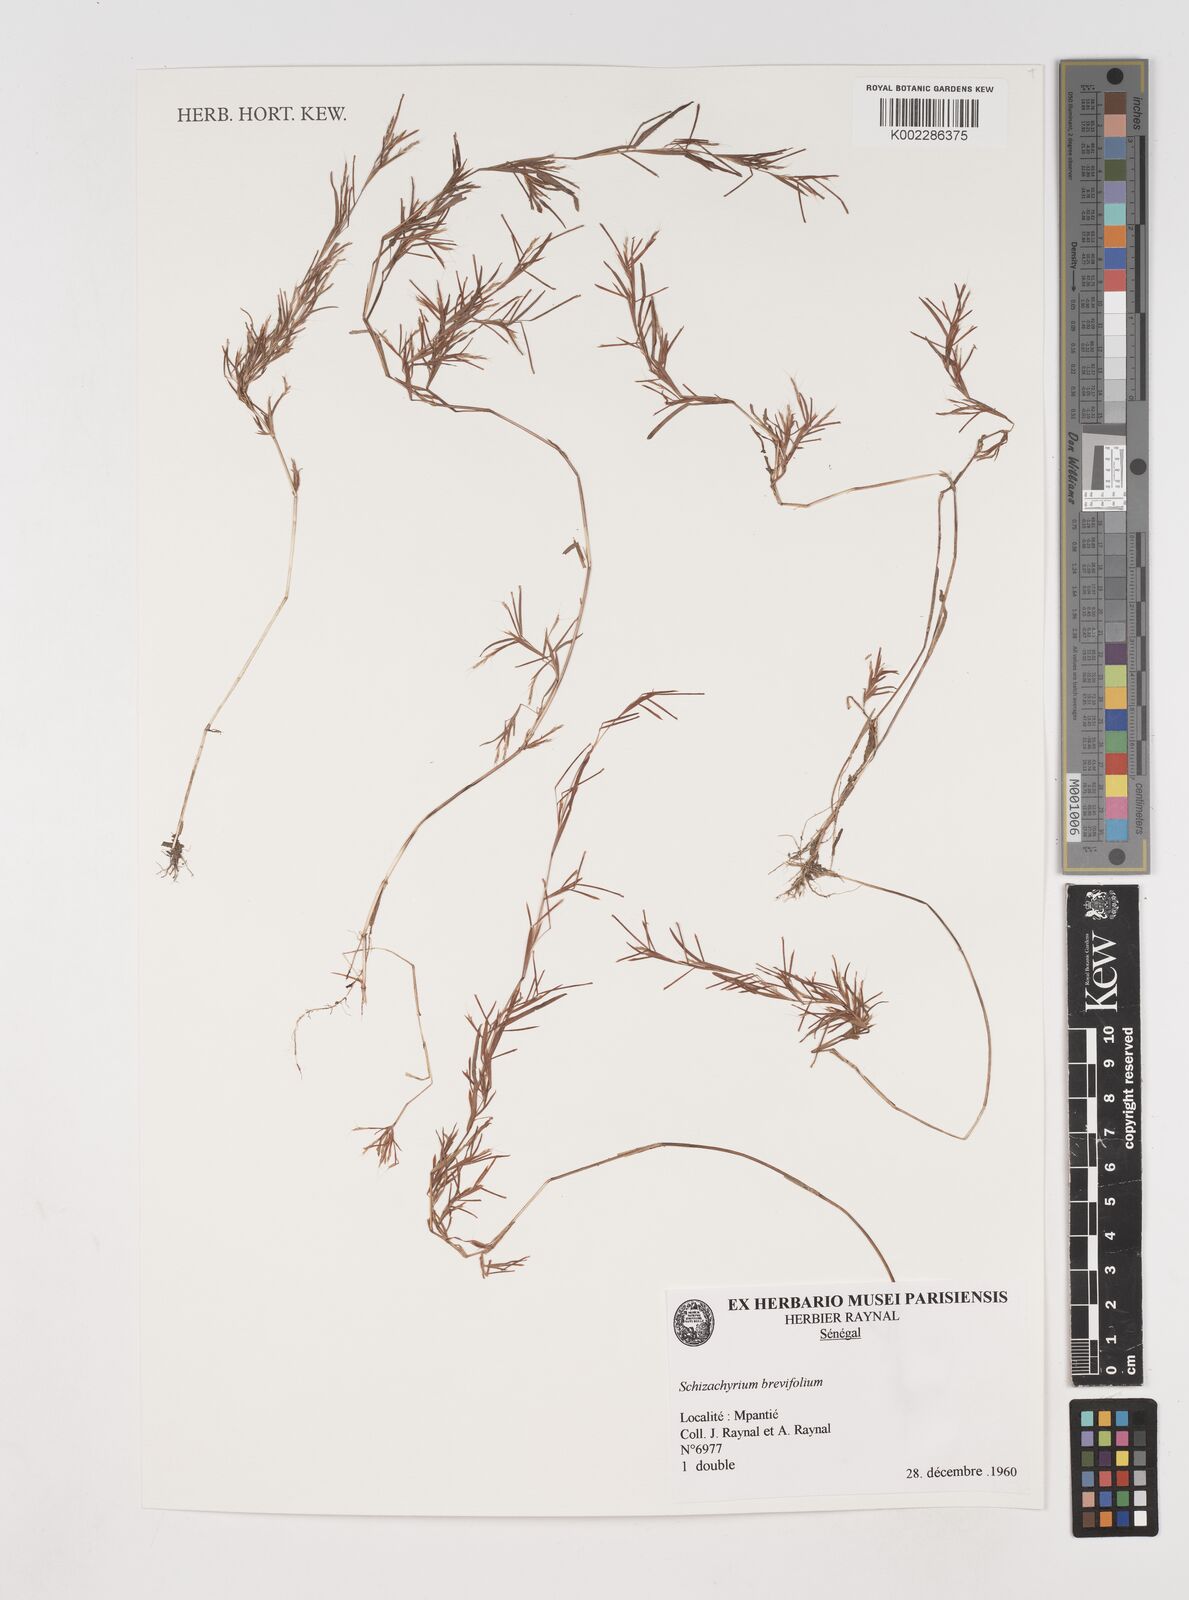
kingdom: Plantae
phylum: Tracheophyta
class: Liliopsida
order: Poales
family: Poaceae
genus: Schizachyrium
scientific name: Schizachyrium brevifolium
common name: Serillo dulce
